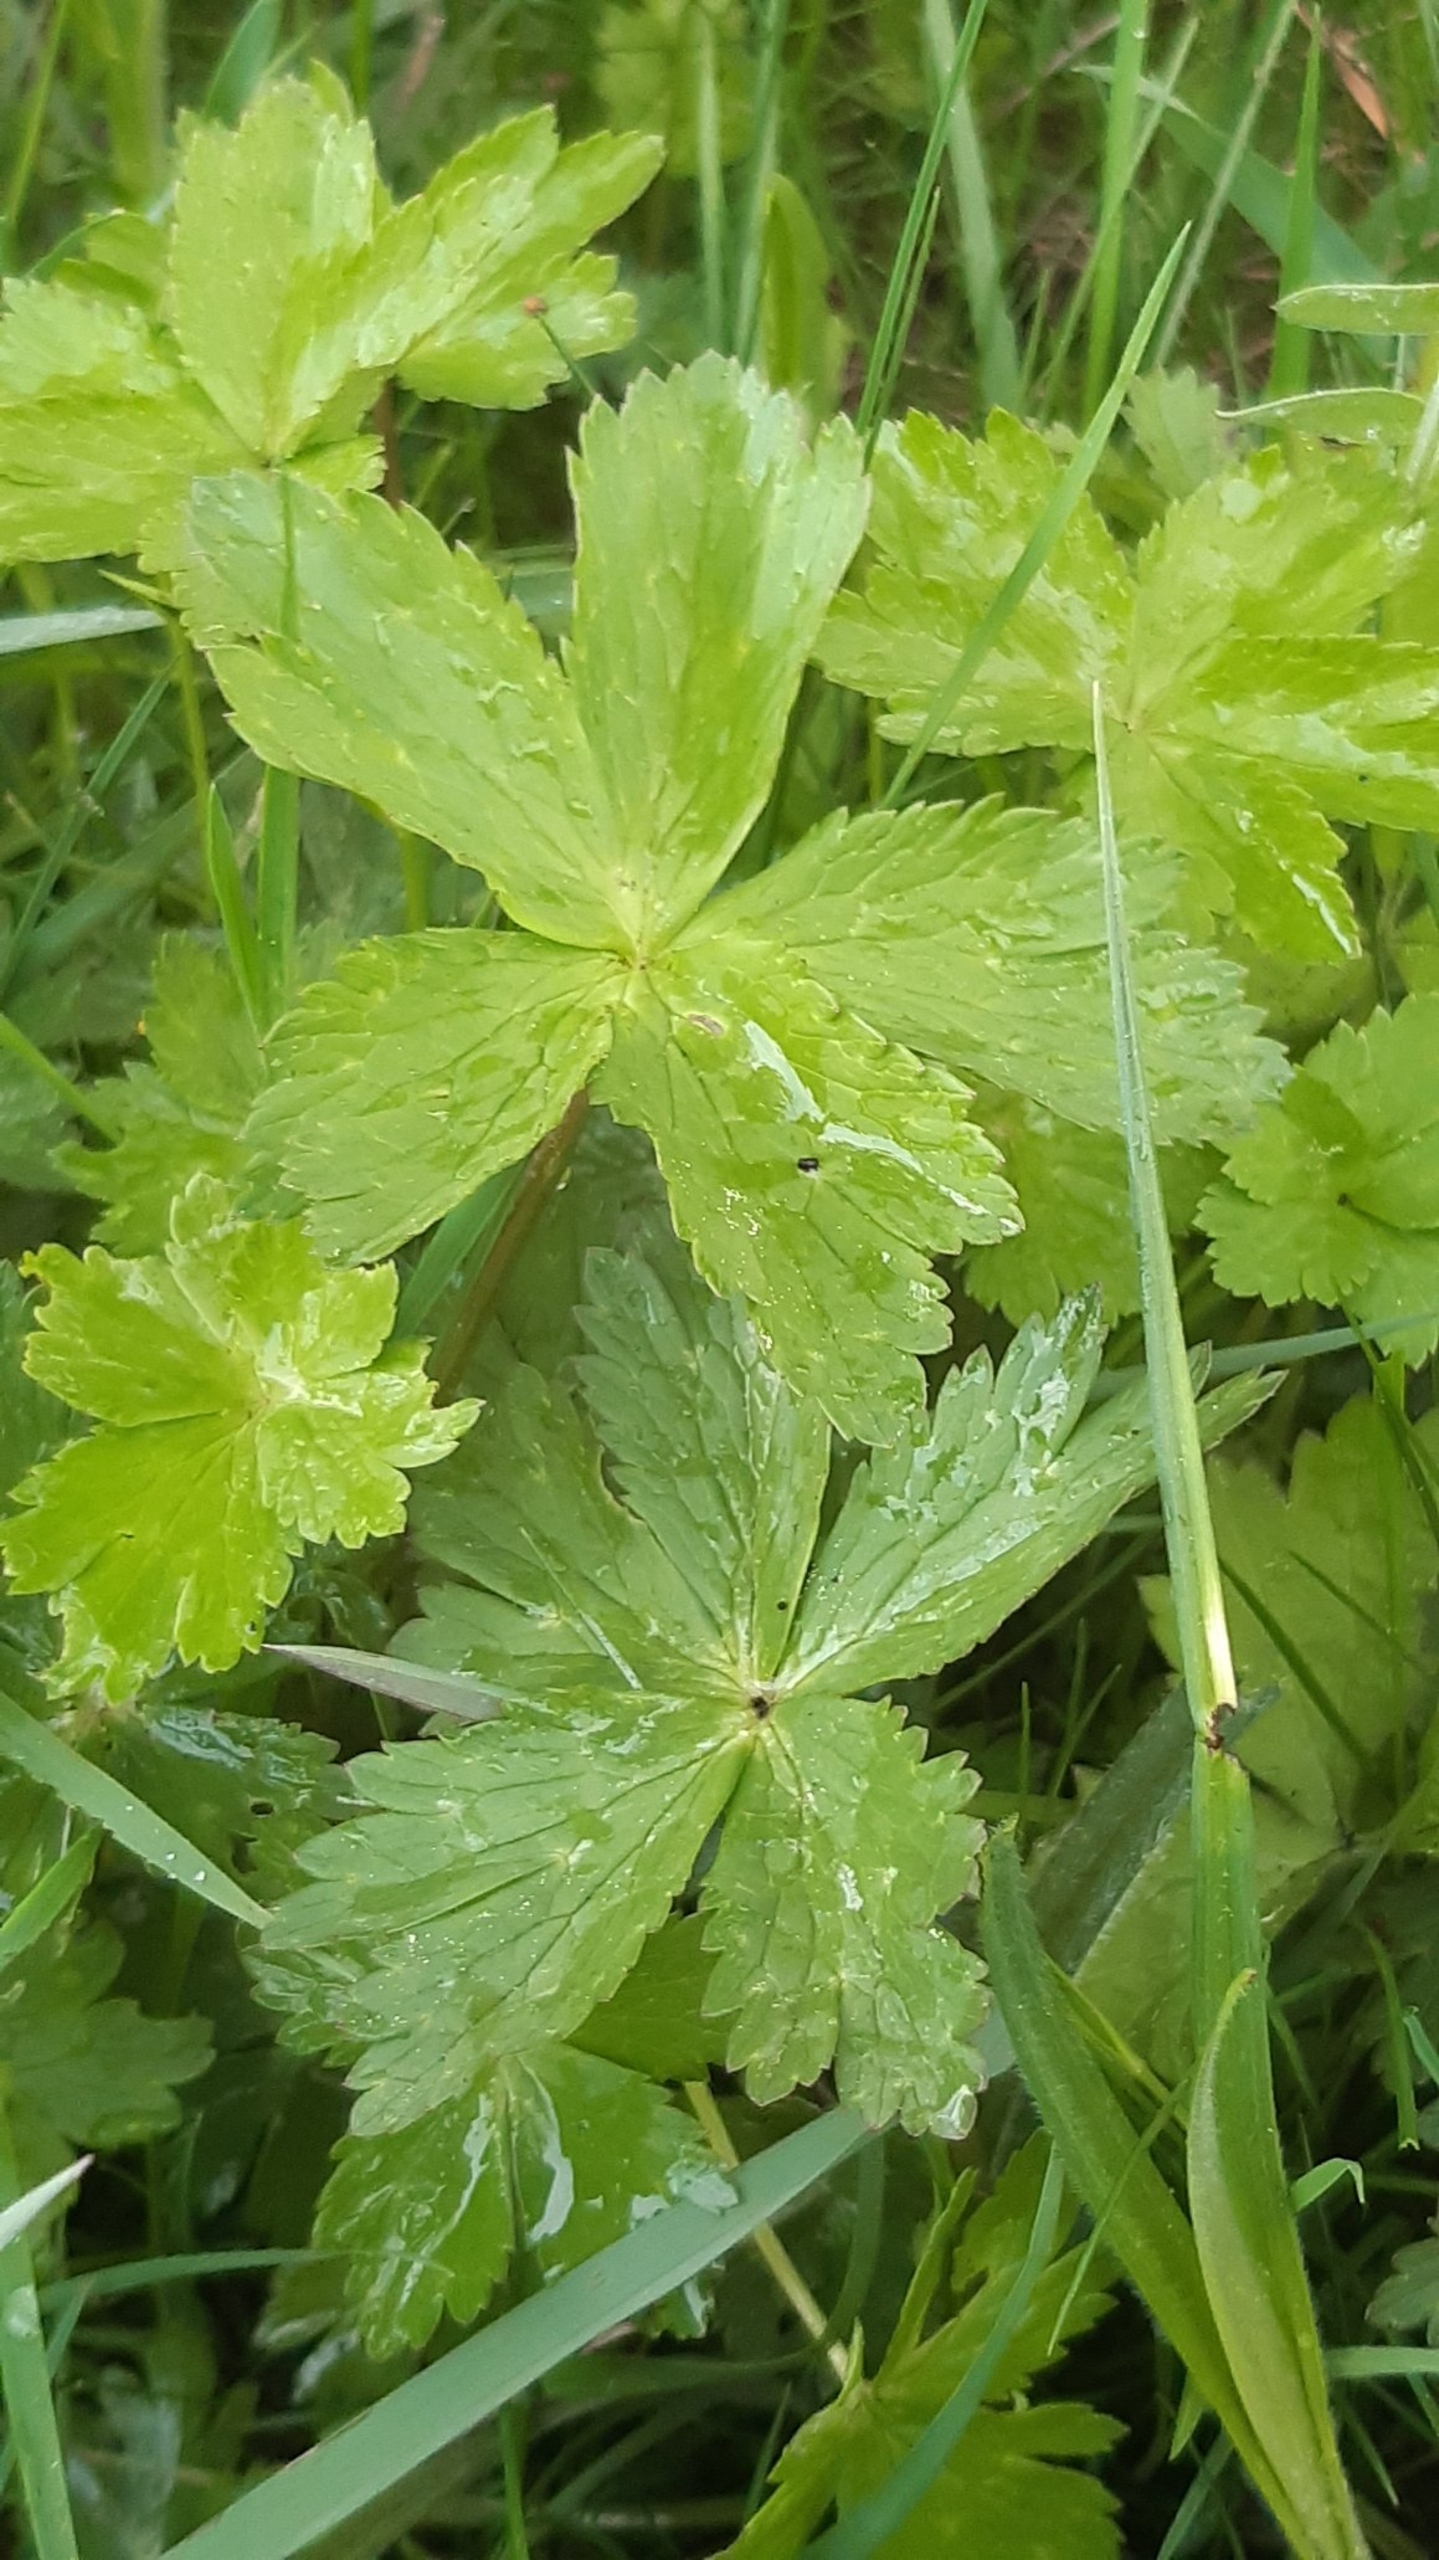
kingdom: Plantae
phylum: Tracheophyta
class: Magnoliopsida
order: Ranunculales
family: Ranunculaceae
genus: Trollius
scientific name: Trollius europaeus
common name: Engblomme
